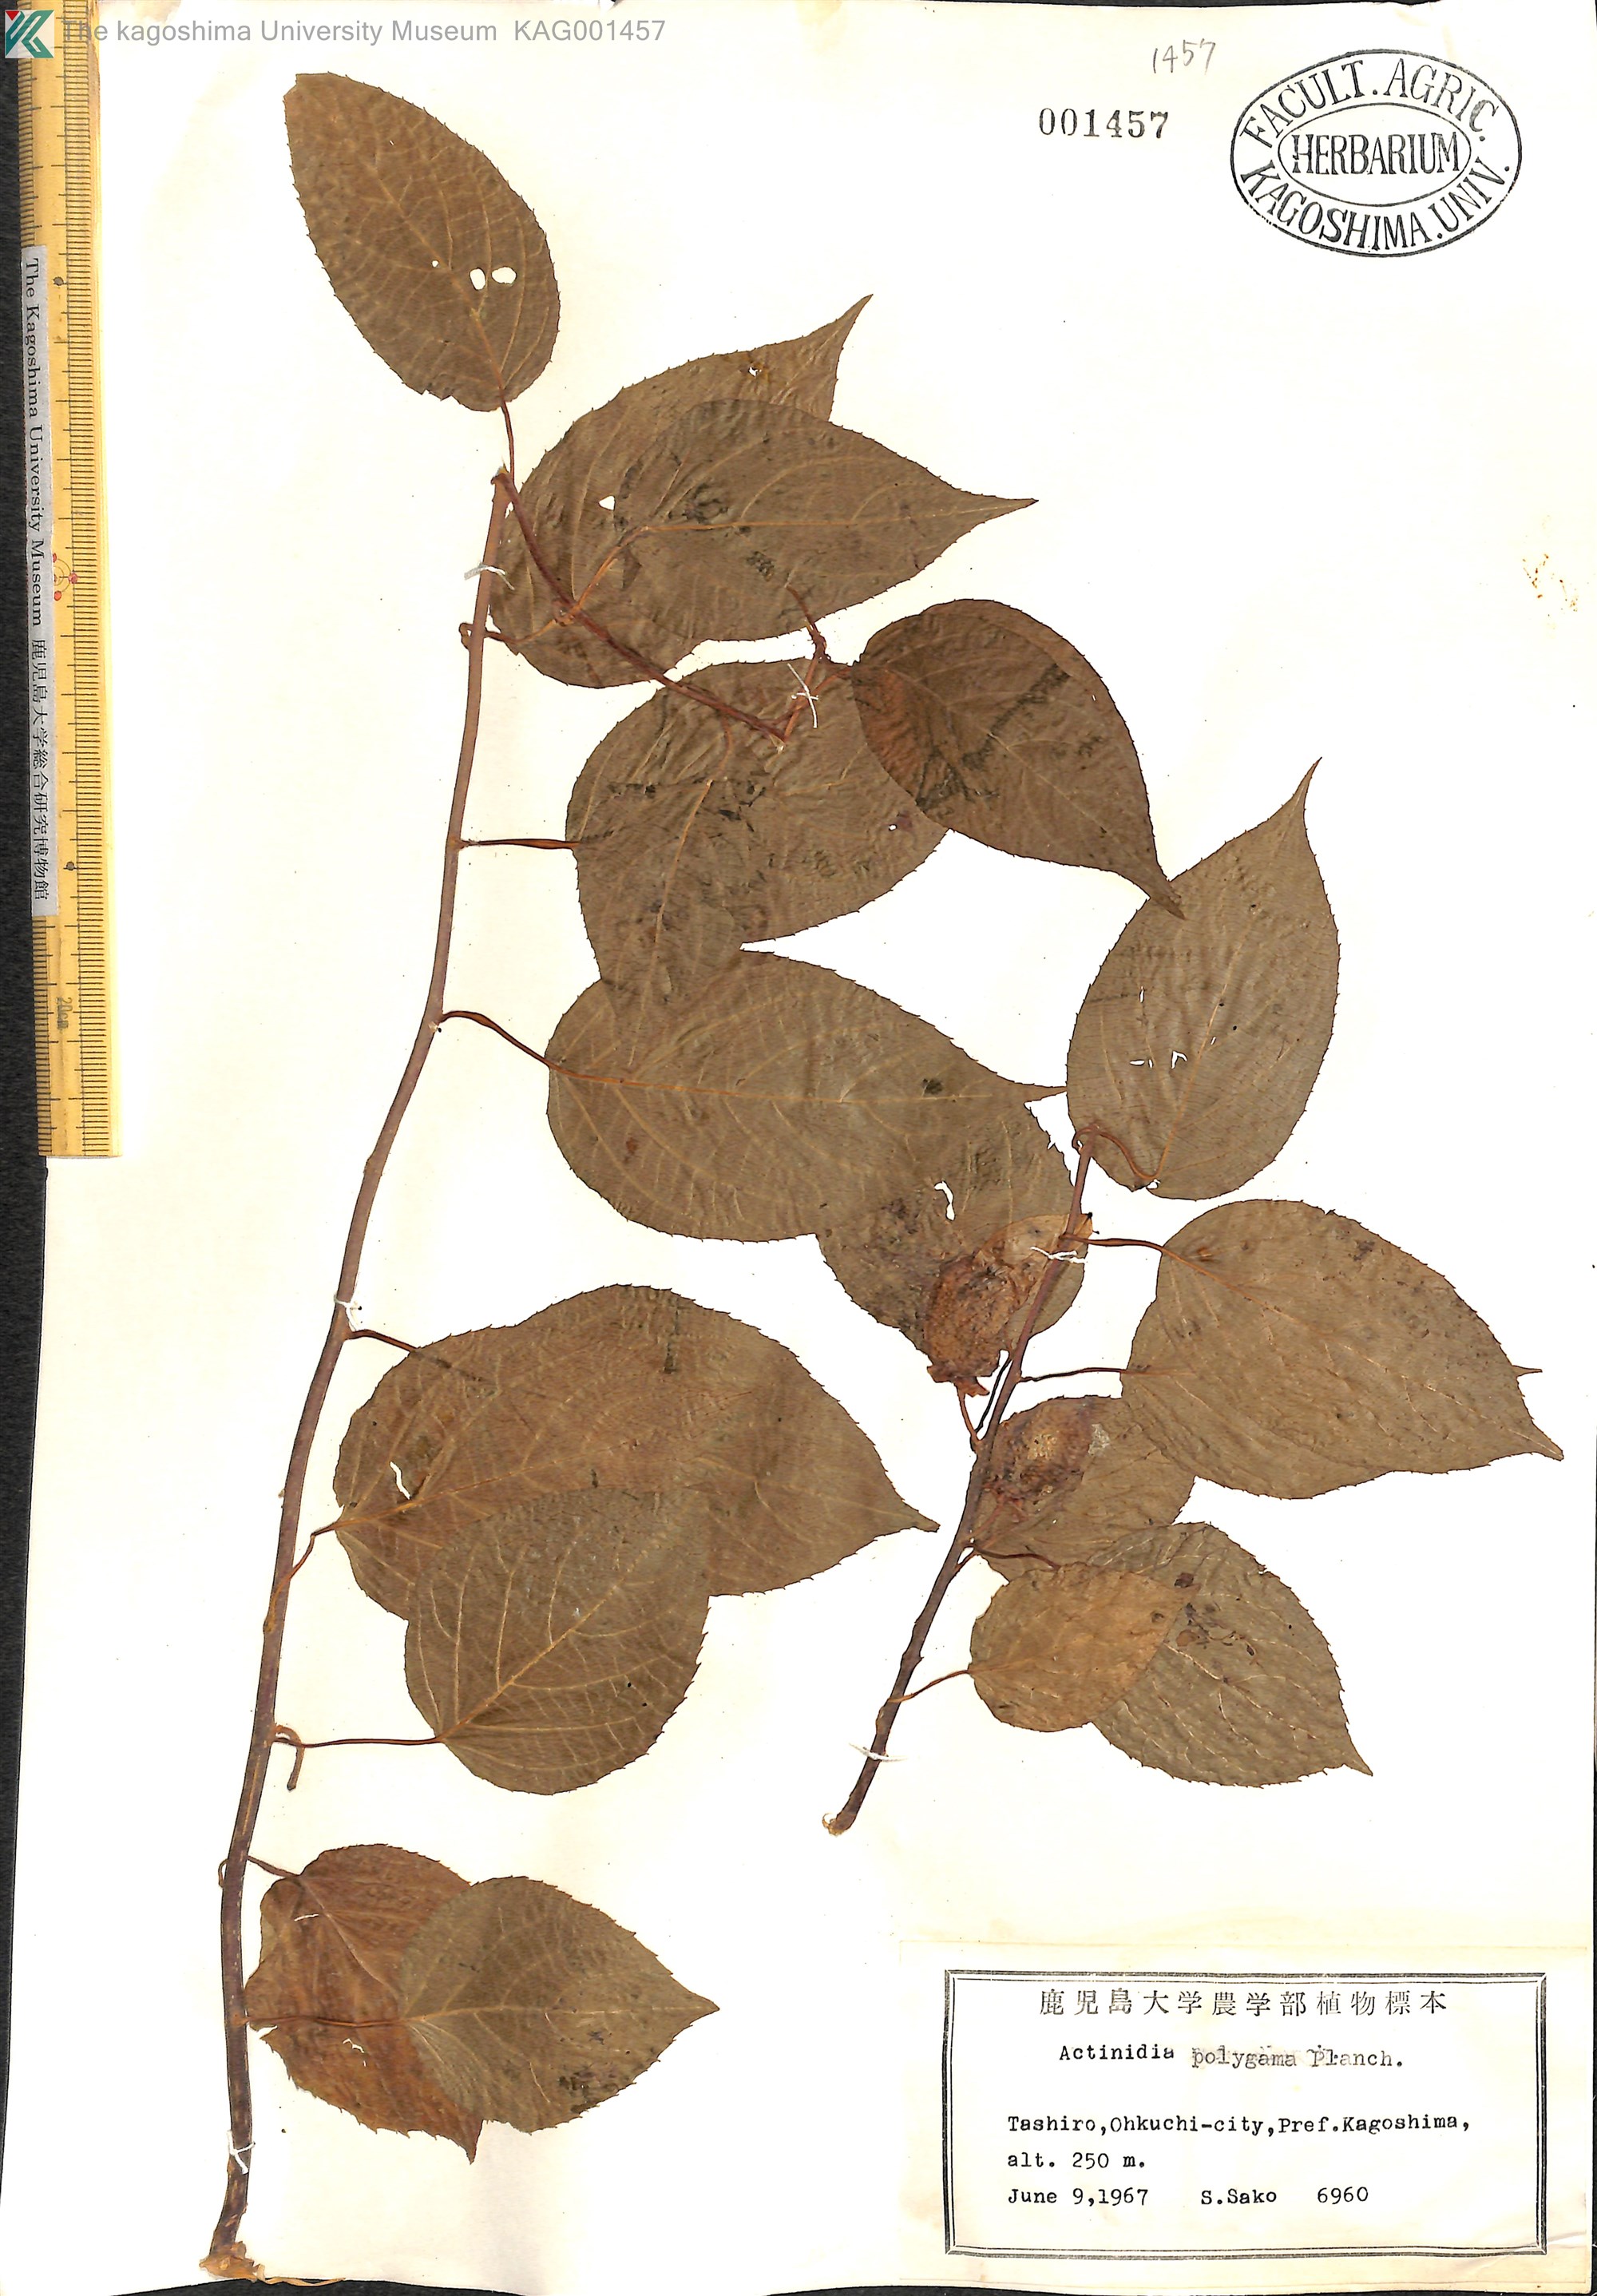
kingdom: Plantae
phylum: Tracheophyta
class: Magnoliopsida
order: Ericales
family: Actinidiaceae
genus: Actinidia
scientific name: Actinidia polygama
